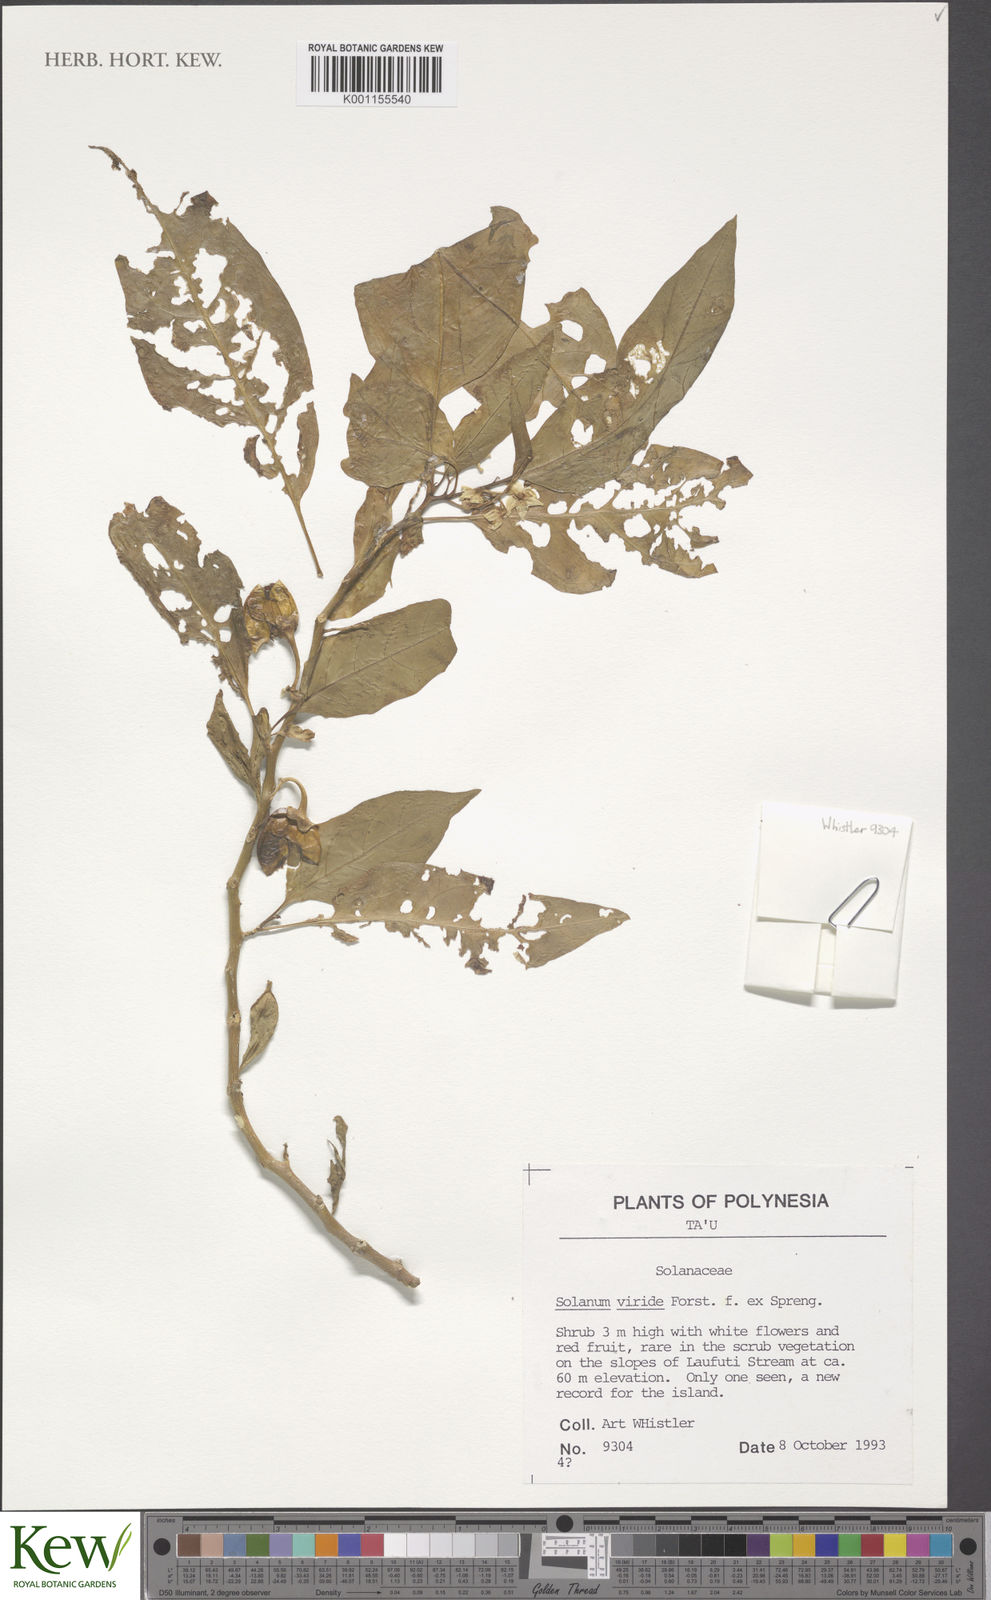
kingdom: Plantae
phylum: Tracheophyta
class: Magnoliopsida
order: Solanales
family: Solanaceae
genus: Solanum
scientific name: Solanum
